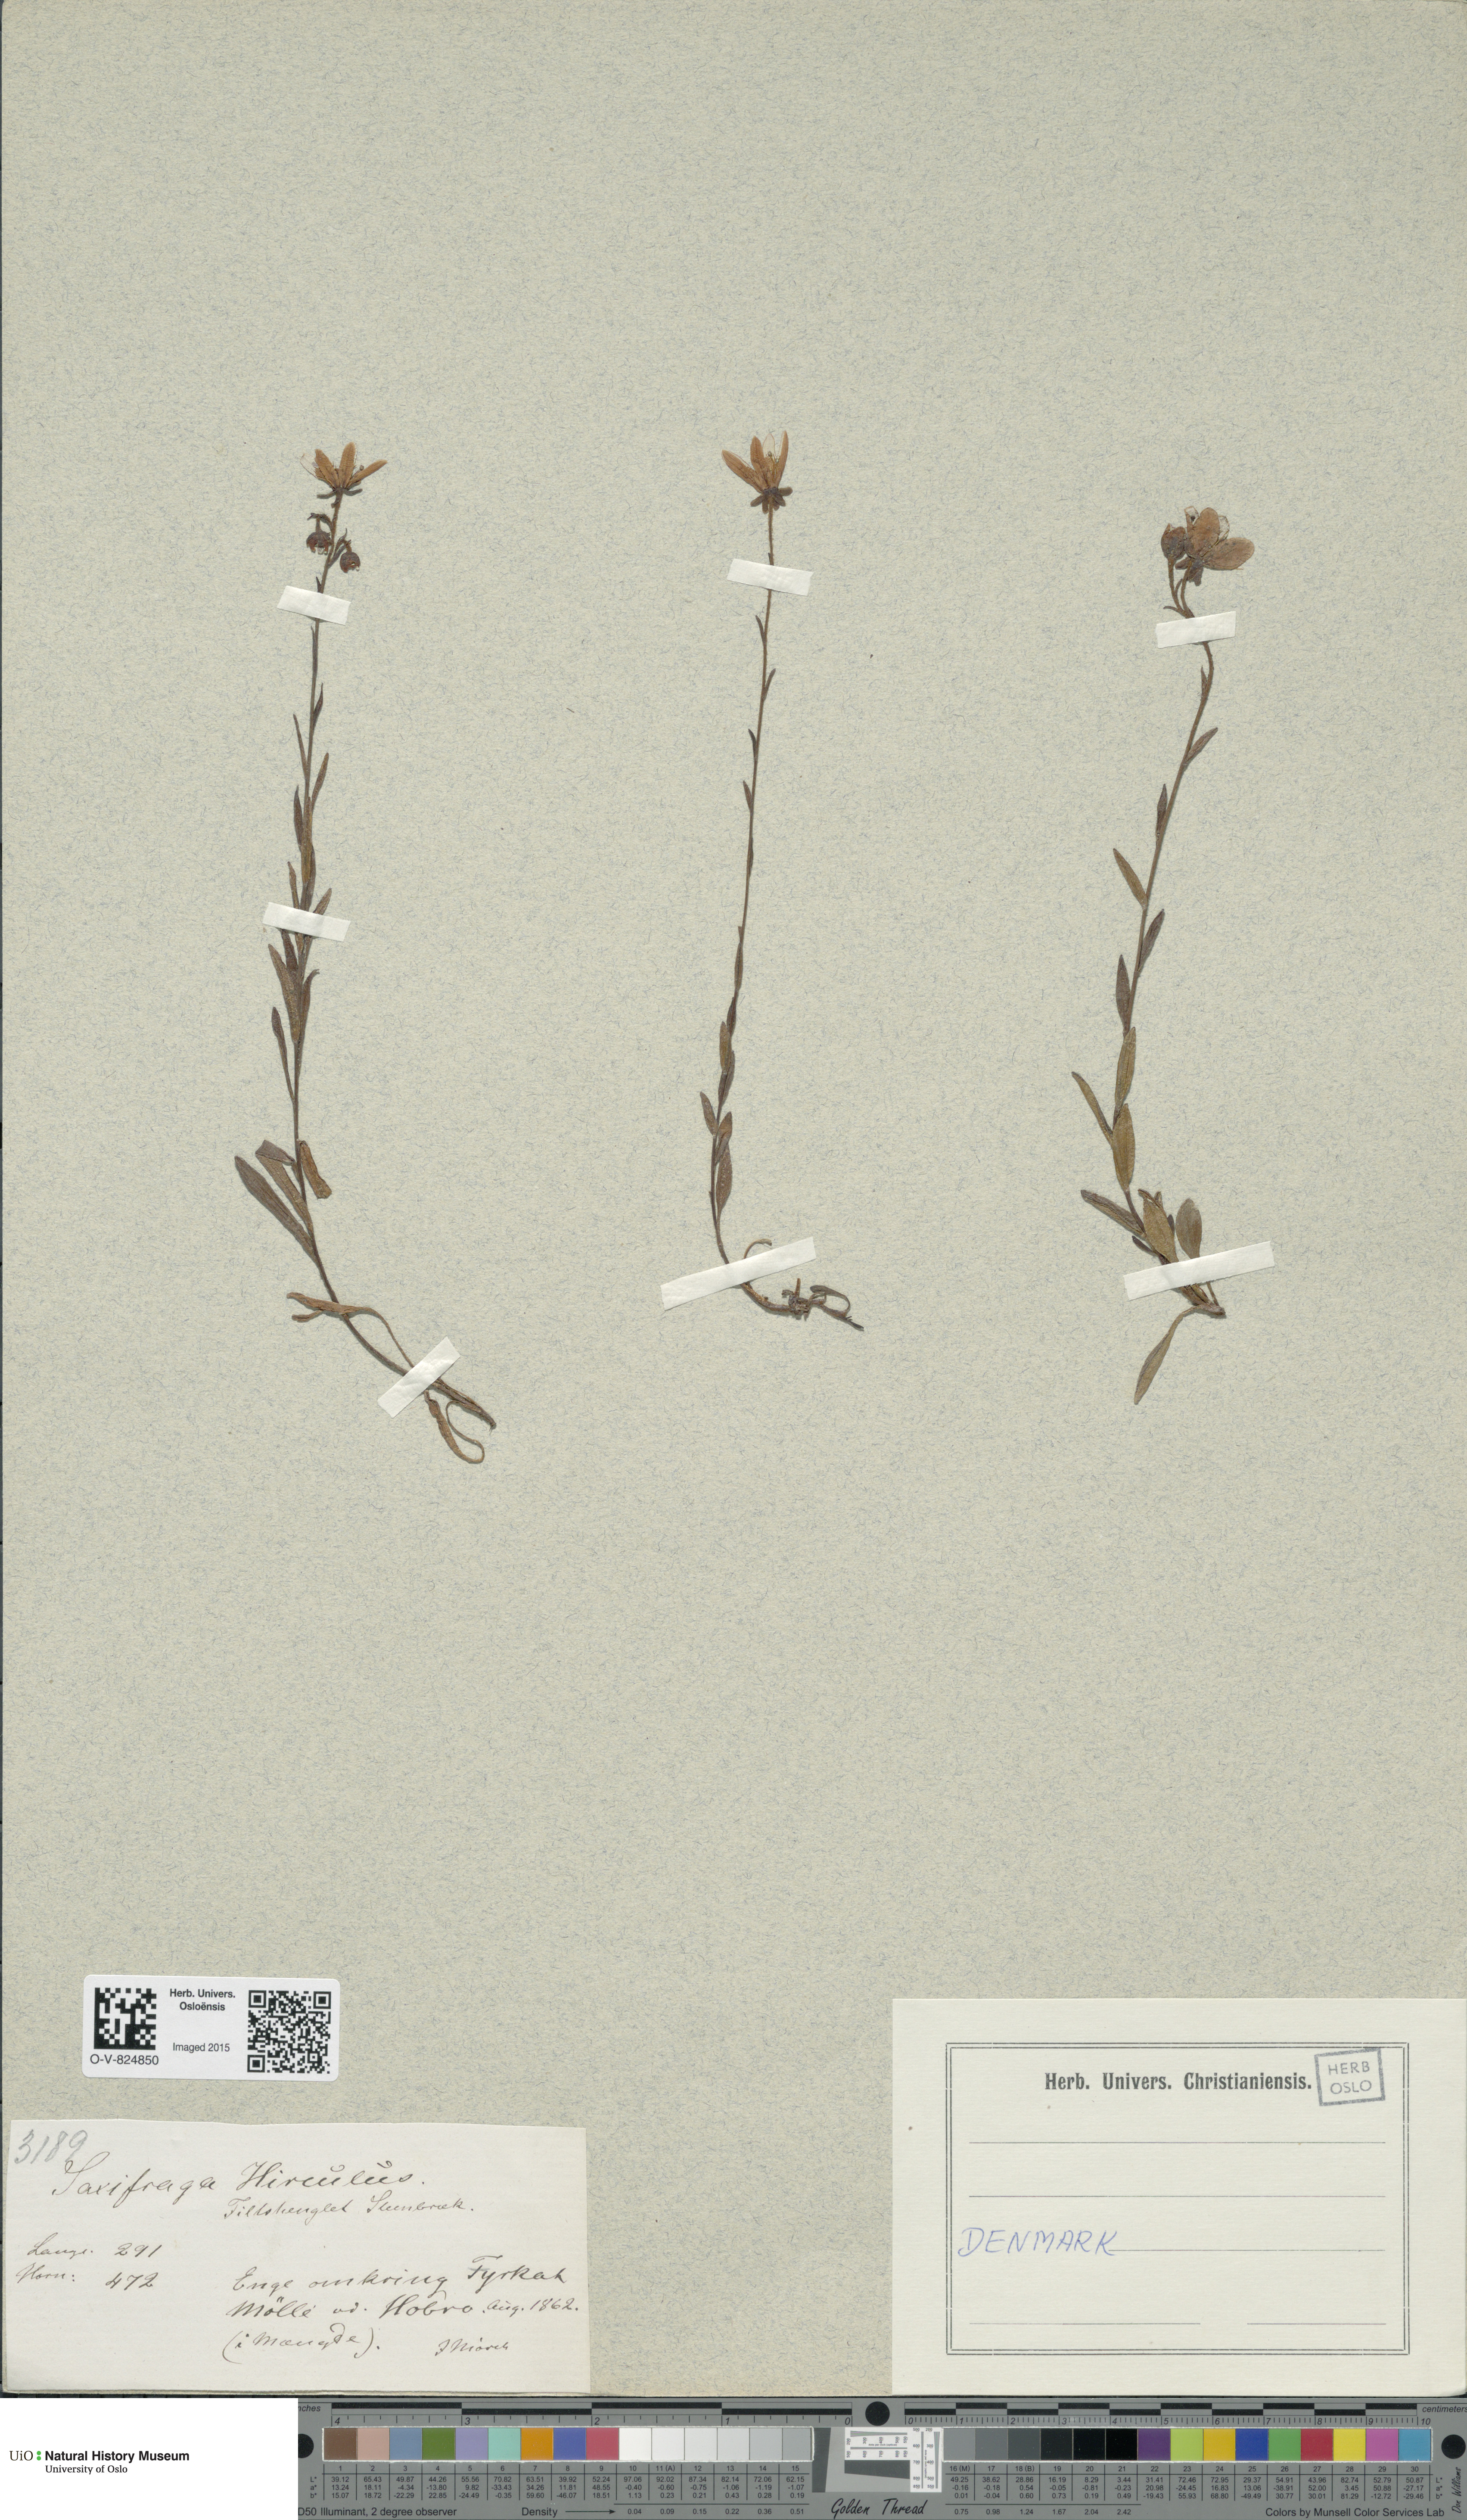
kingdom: Plantae
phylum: Tracheophyta
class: Magnoliopsida
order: Saxifragales
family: Saxifragaceae
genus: Saxifraga
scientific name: Saxifraga hirculus
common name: Yellow marsh saxifrage
